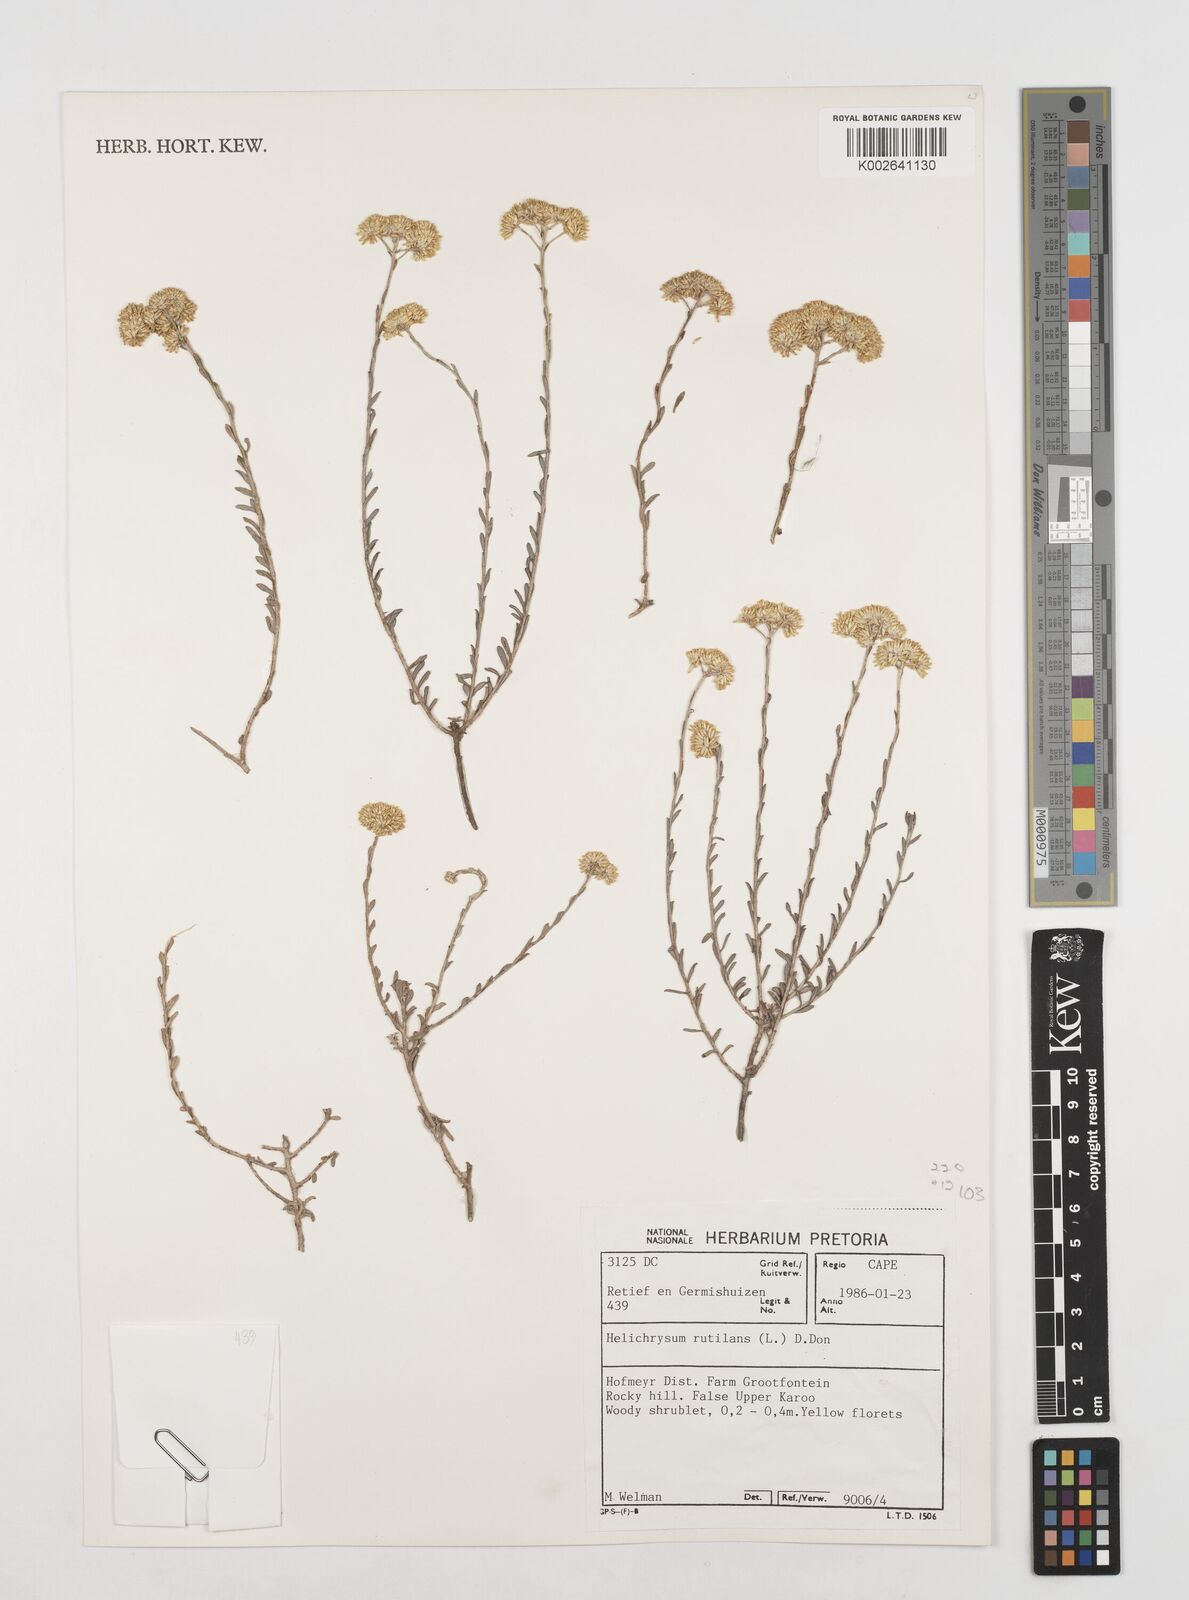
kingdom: Plantae
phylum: Tracheophyta
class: Magnoliopsida
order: Asterales
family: Asteraceae
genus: Helichrysum
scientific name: Helichrysum rutilans
